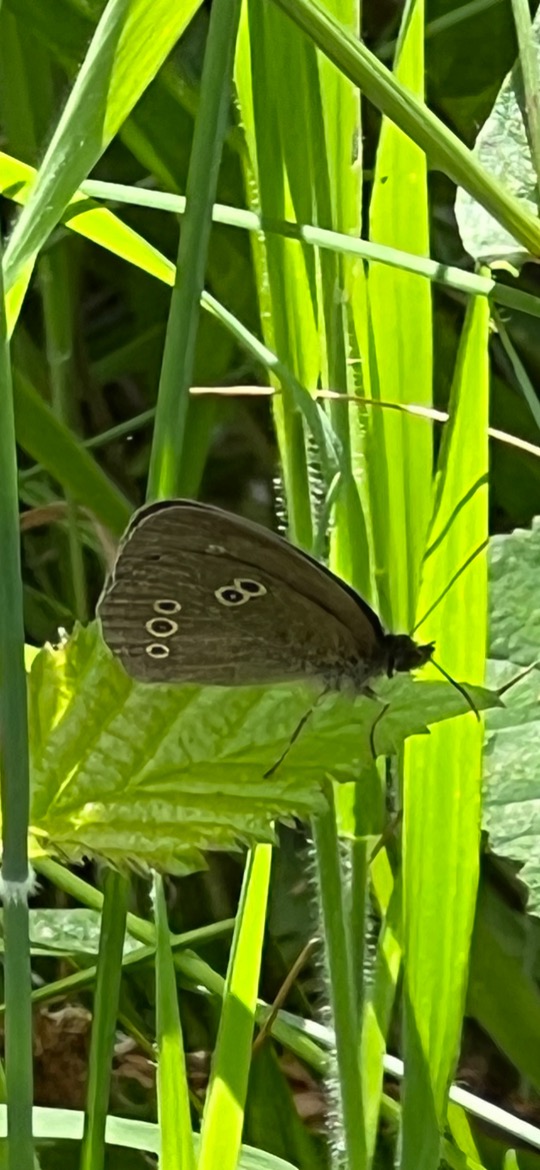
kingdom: Animalia
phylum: Arthropoda
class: Insecta
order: Lepidoptera
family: Nymphalidae
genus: Aphantopus
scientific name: Aphantopus hyperantus
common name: Engrandøje
